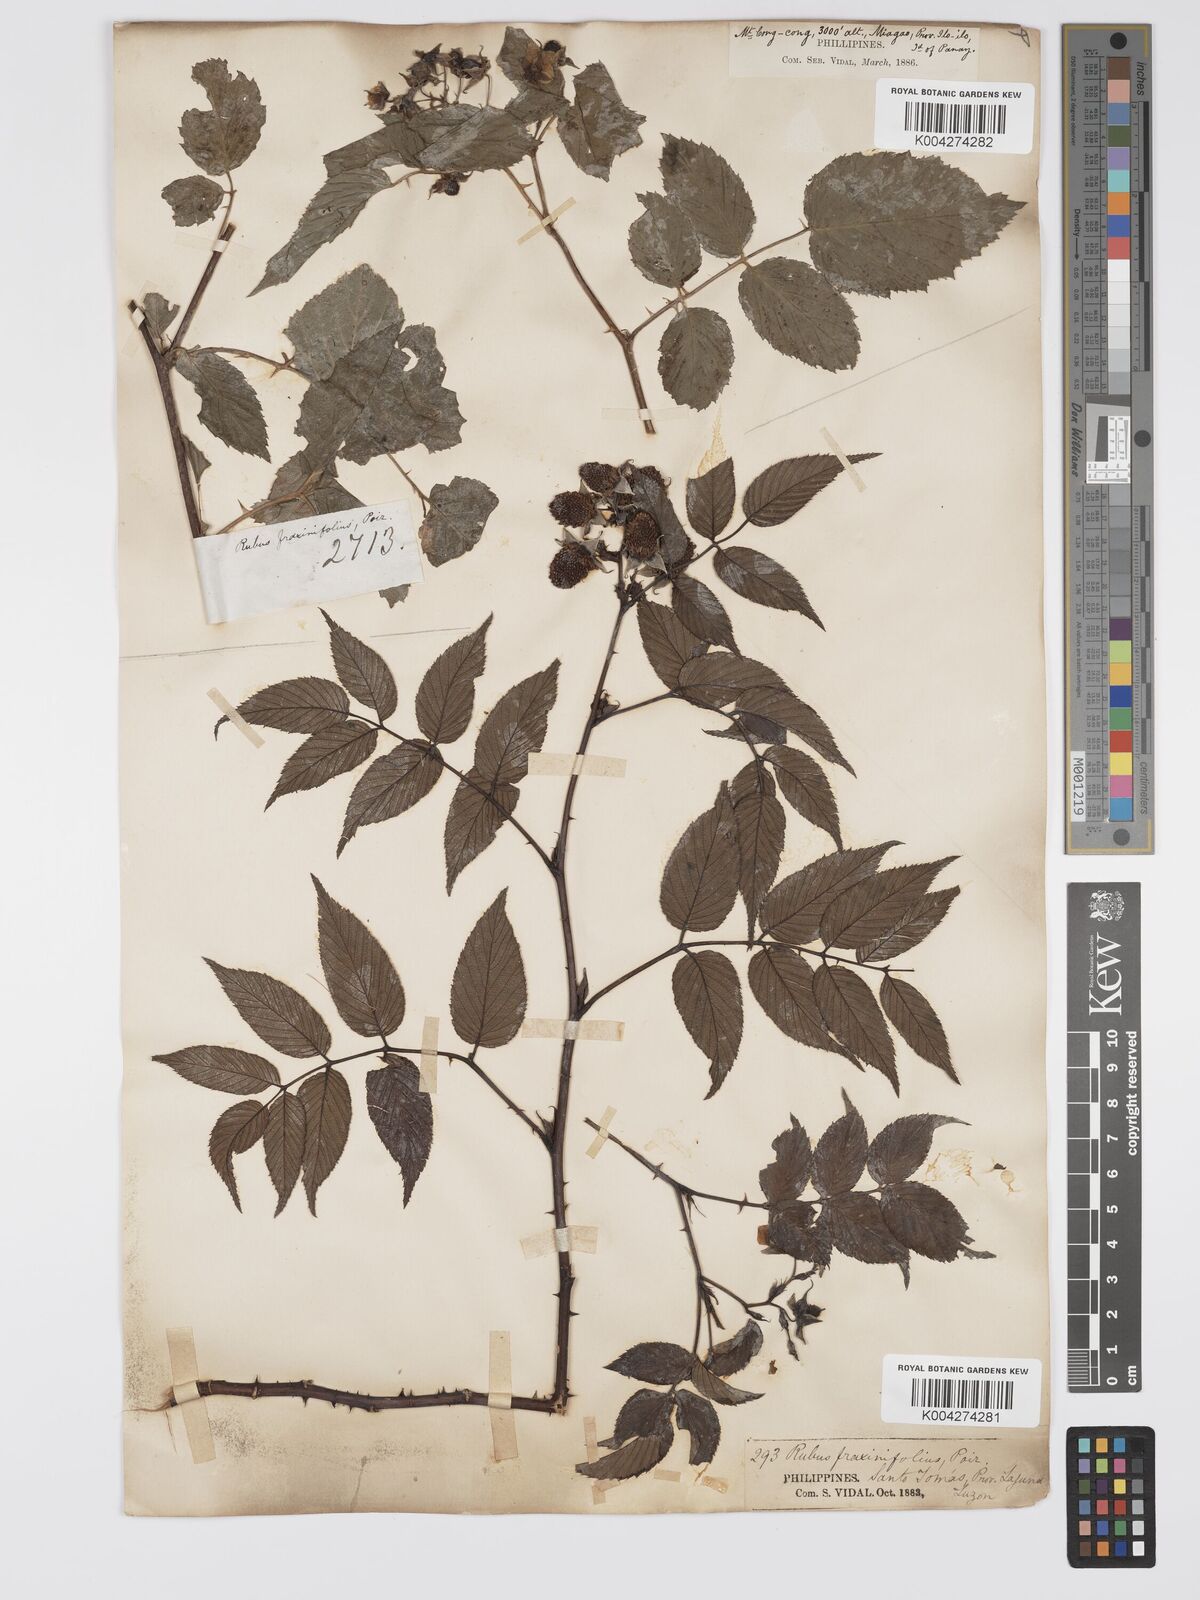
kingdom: Plantae
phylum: Tracheophyta
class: Magnoliopsida
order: Rosales
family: Rosaceae
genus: Rubus
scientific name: Rubus fraxinifolius
